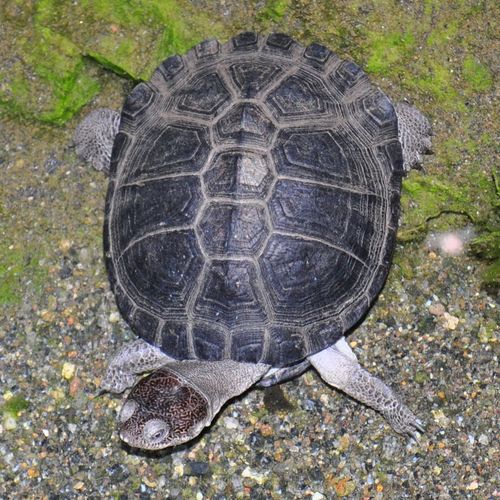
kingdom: Animalia
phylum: Chordata
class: Testudines
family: Pelomedusidae
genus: Pelusios
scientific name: Pelusios sinuatus
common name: Serrated hinged terrapin
